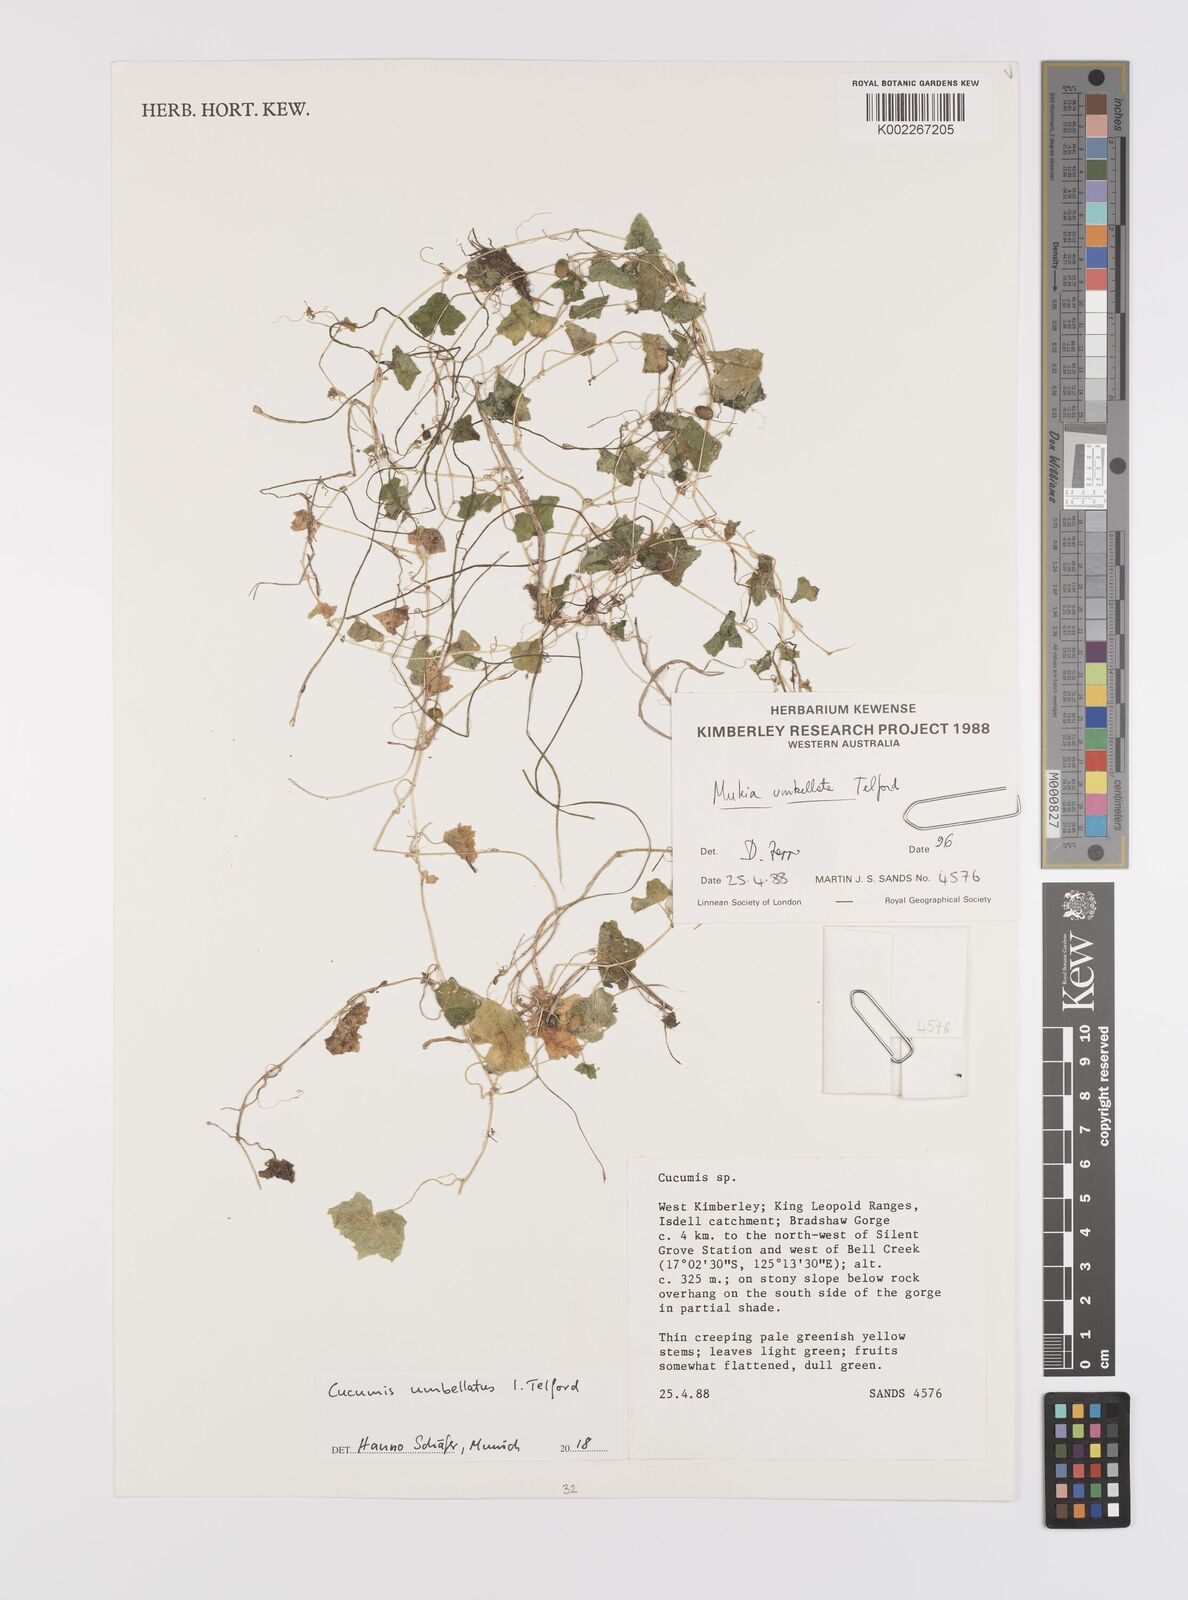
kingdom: Plantae
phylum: Tracheophyta
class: Magnoliopsida
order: Cucurbitales
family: Cucurbitaceae
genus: Cucumis
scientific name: Cucumis umbellatus
